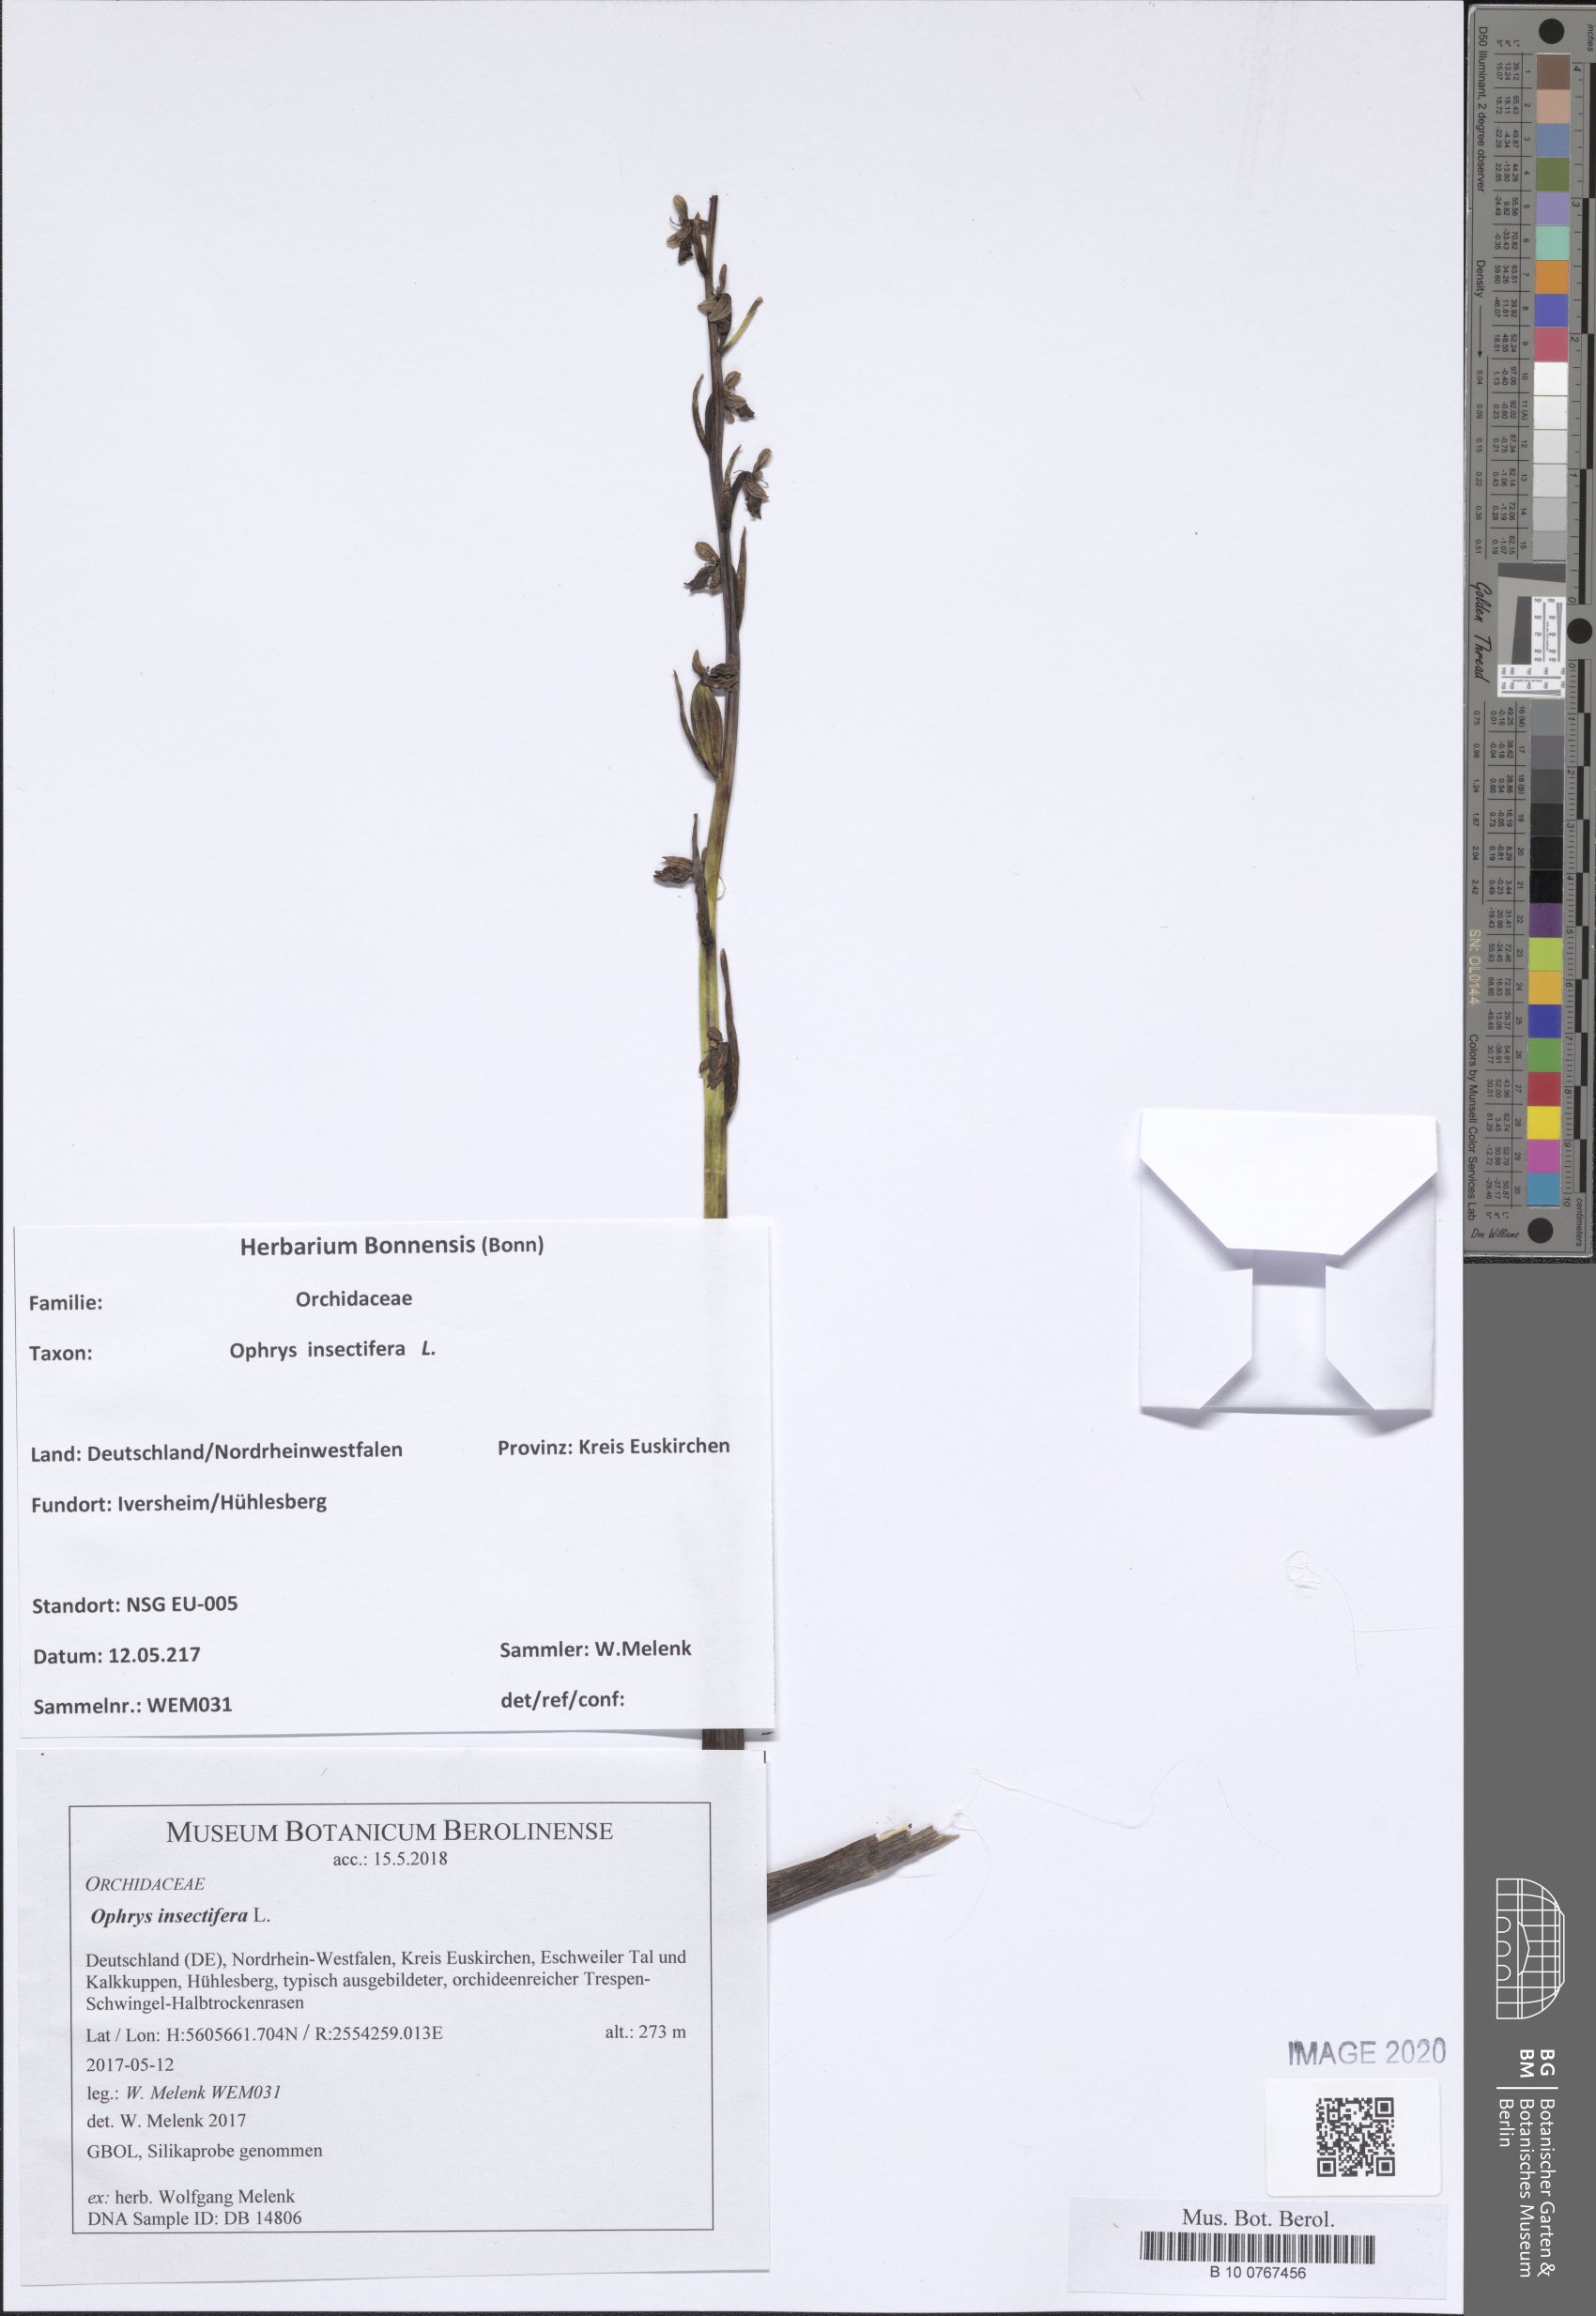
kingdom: Plantae
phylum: Tracheophyta
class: Liliopsida
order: Asparagales
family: Orchidaceae
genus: Ophrys
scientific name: Ophrys insectifera
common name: Fly orchid
